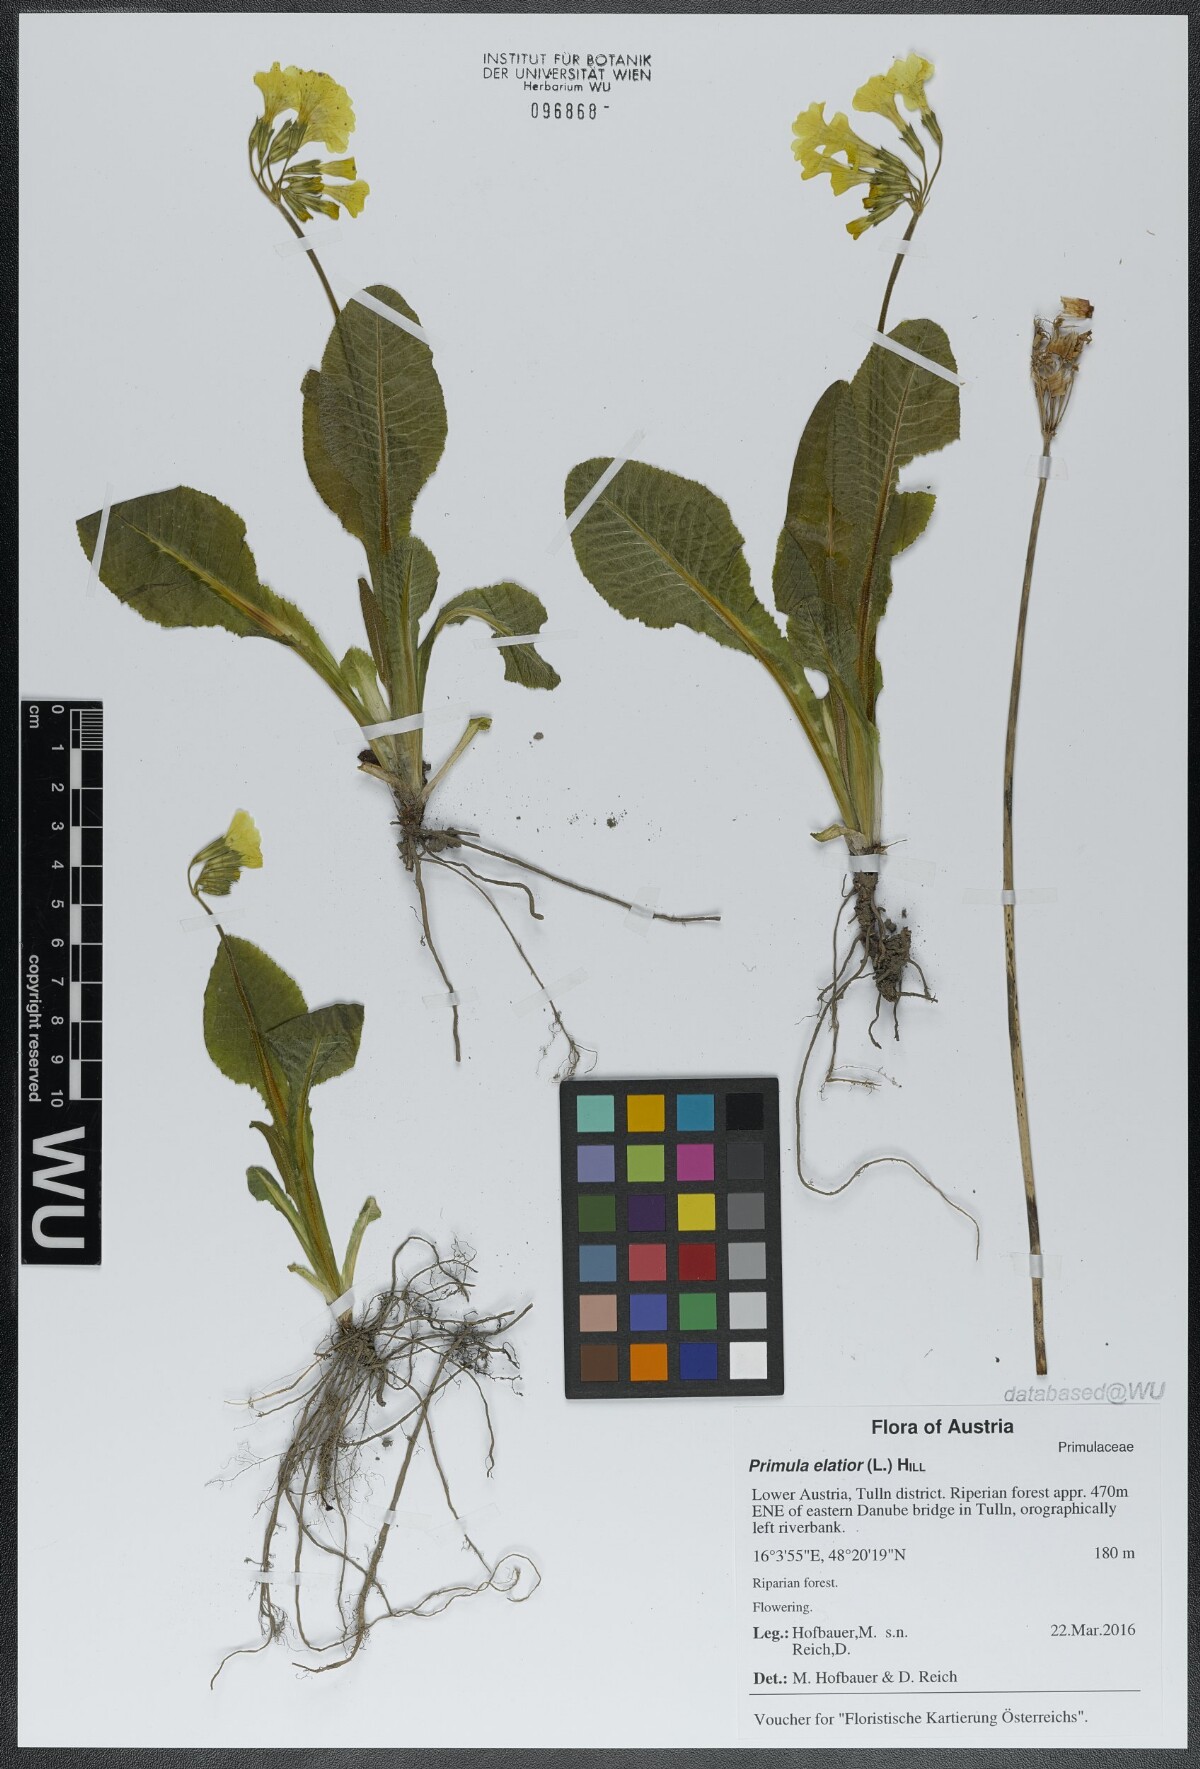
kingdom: Plantae
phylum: Tracheophyta
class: Magnoliopsida
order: Ericales
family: Primulaceae
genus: Primula
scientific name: Primula elatior
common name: Oxlip
